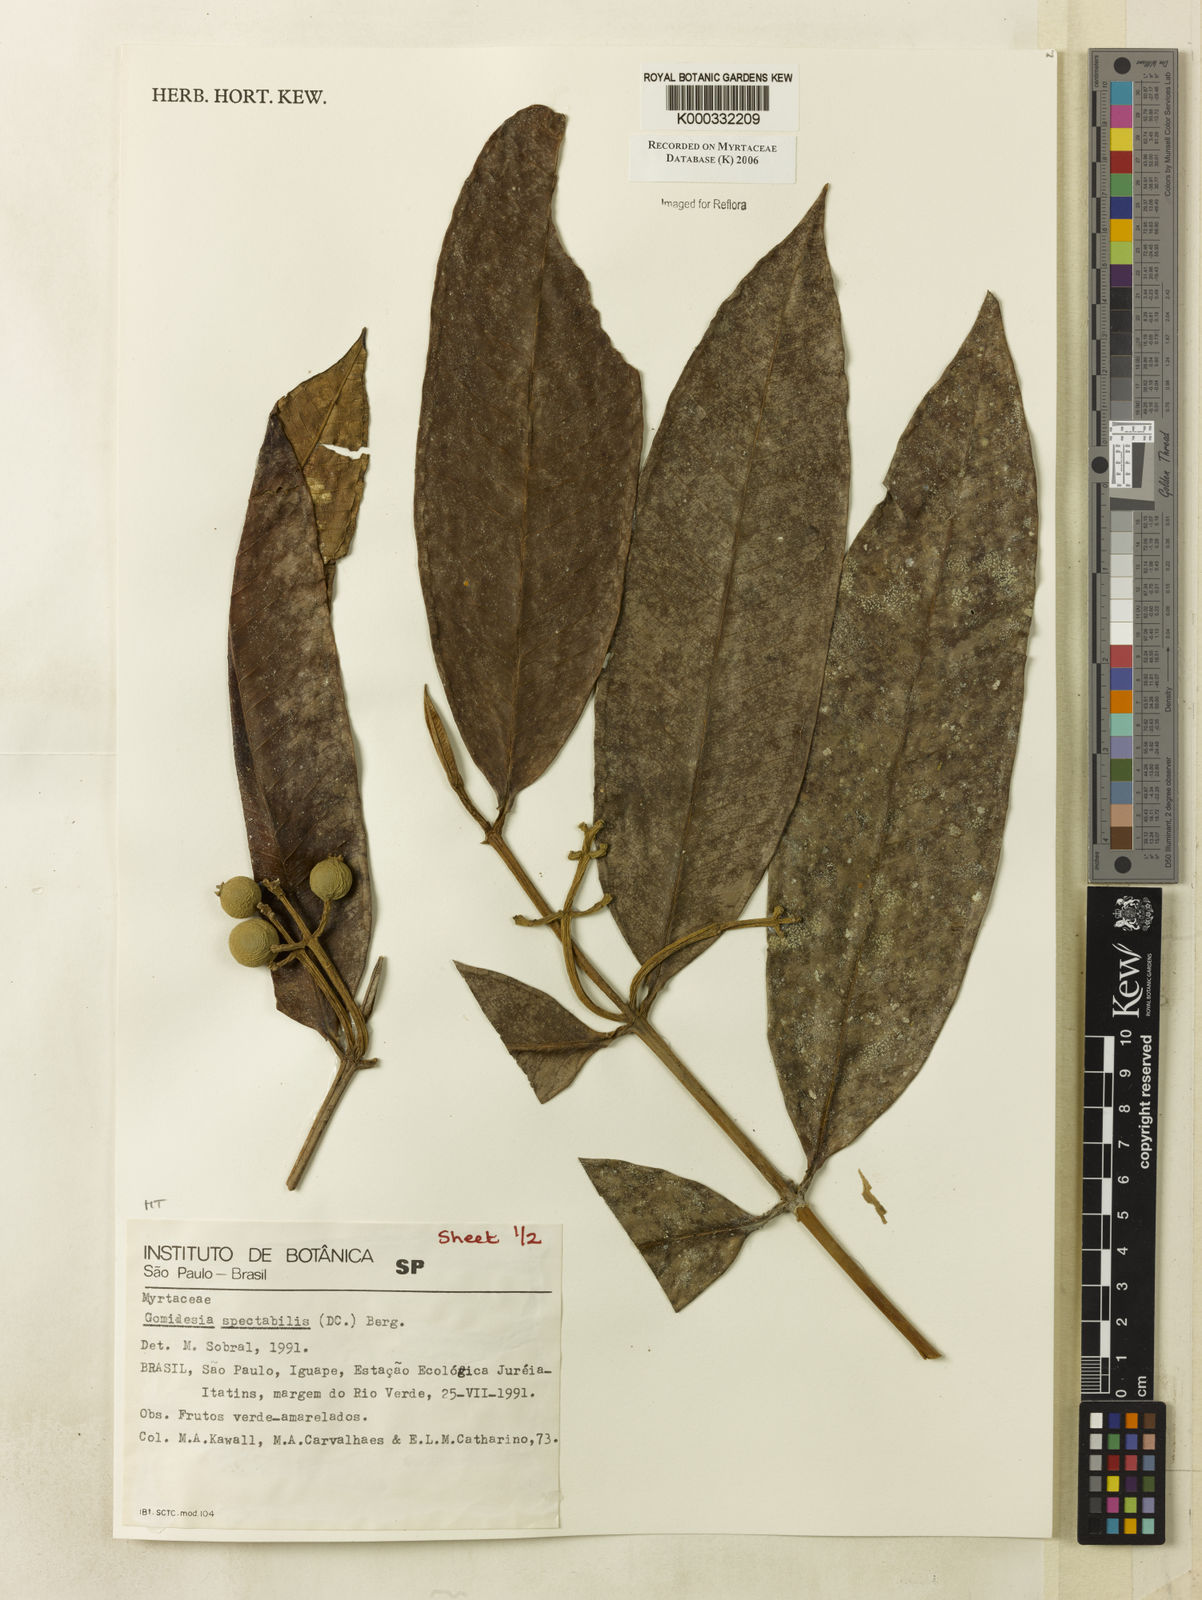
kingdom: Plantae
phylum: Tracheophyta
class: Magnoliopsida
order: Myrtales
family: Myrtaceae
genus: Myrcia
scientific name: Myrcia spectabilis
